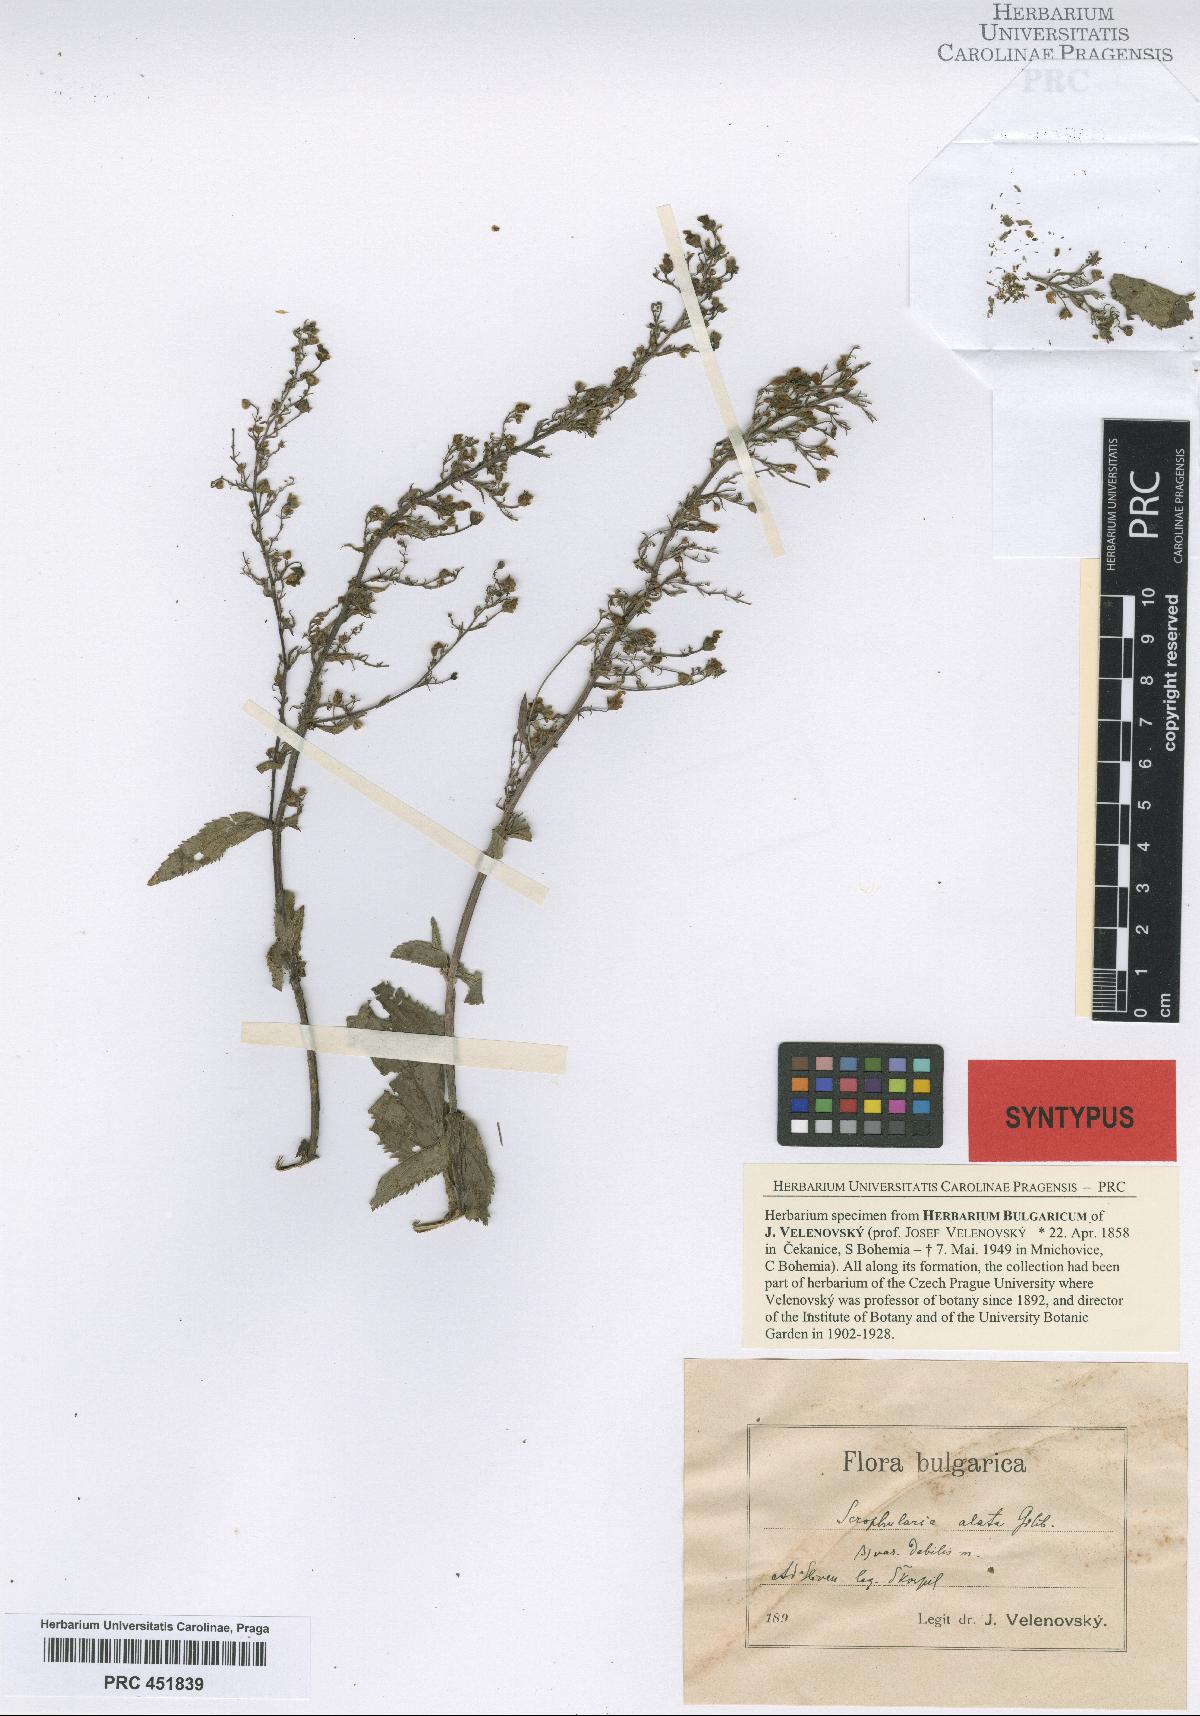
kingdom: Plantae
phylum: Tracheophyta
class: Magnoliopsida
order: Lamiales
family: Scrophulariaceae
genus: Scrophularia
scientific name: Scrophularia alata
